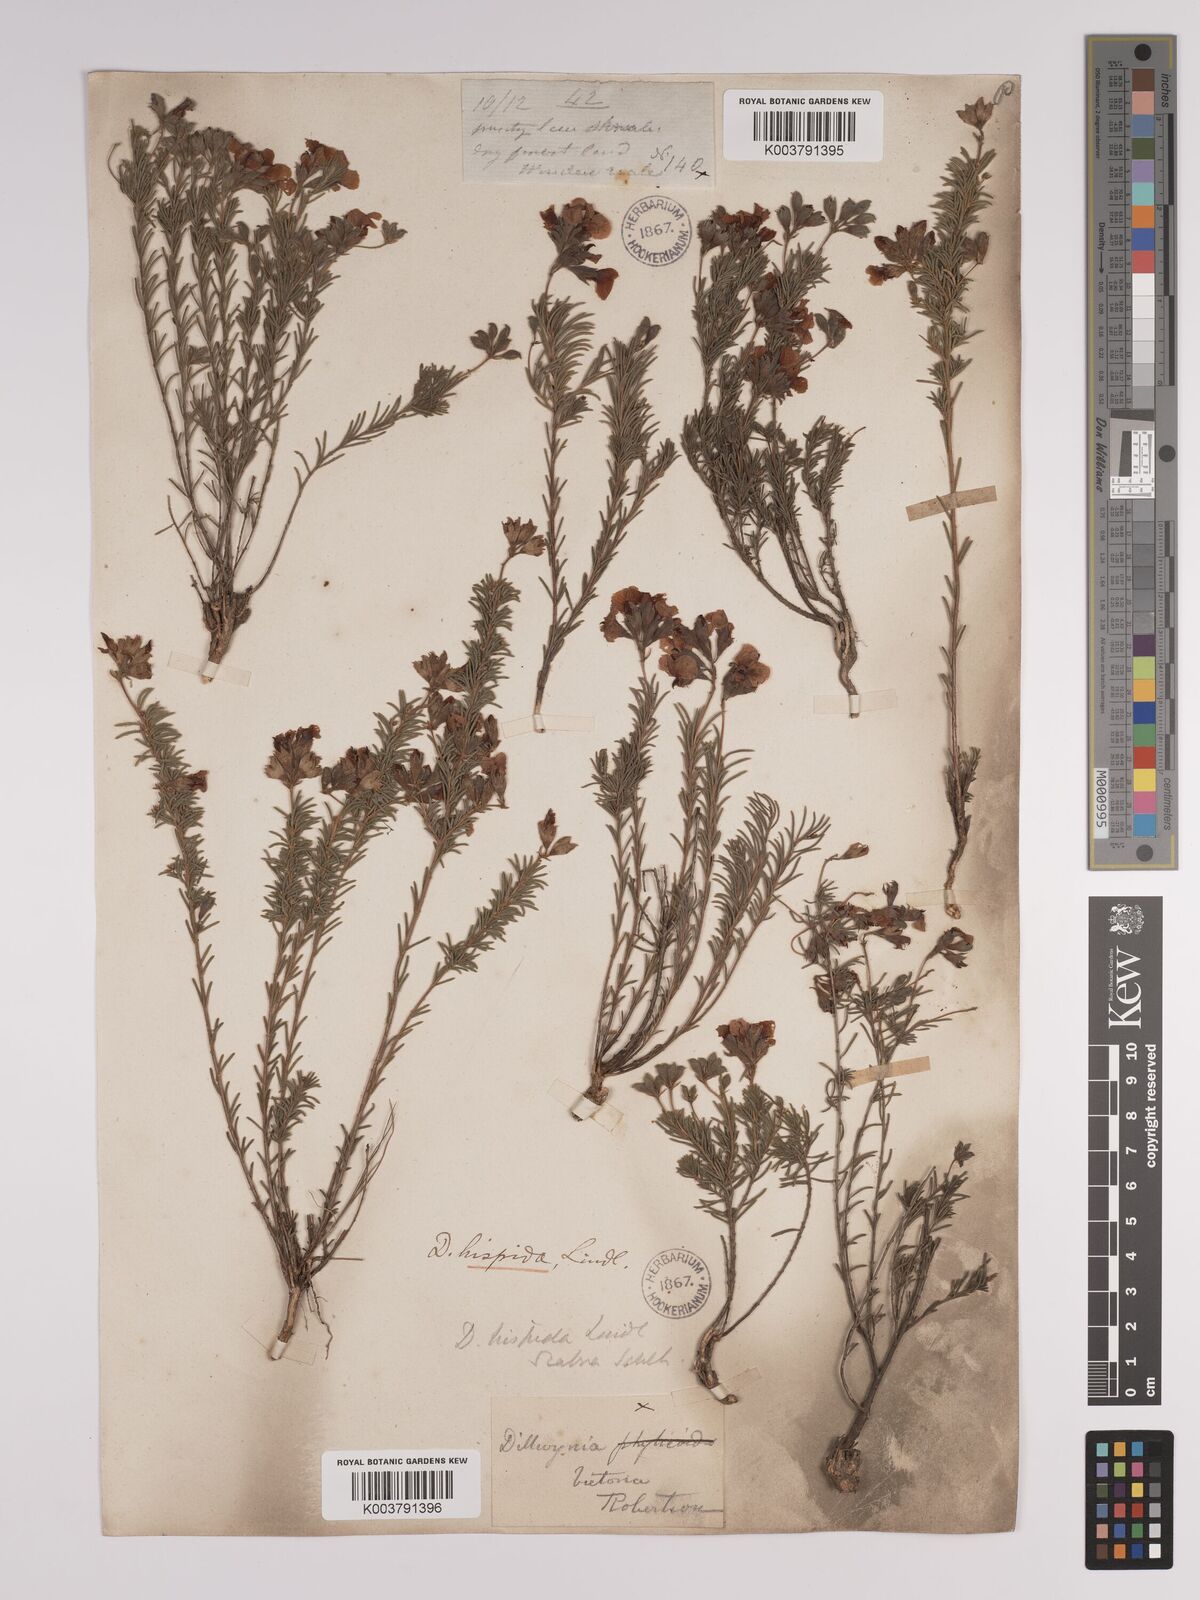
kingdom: Plantae
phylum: Tracheophyta
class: Magnoliopsida
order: Fabales
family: Fabaceae
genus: Dillwynia
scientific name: Dillwynia hispida
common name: Red parrot-pea
